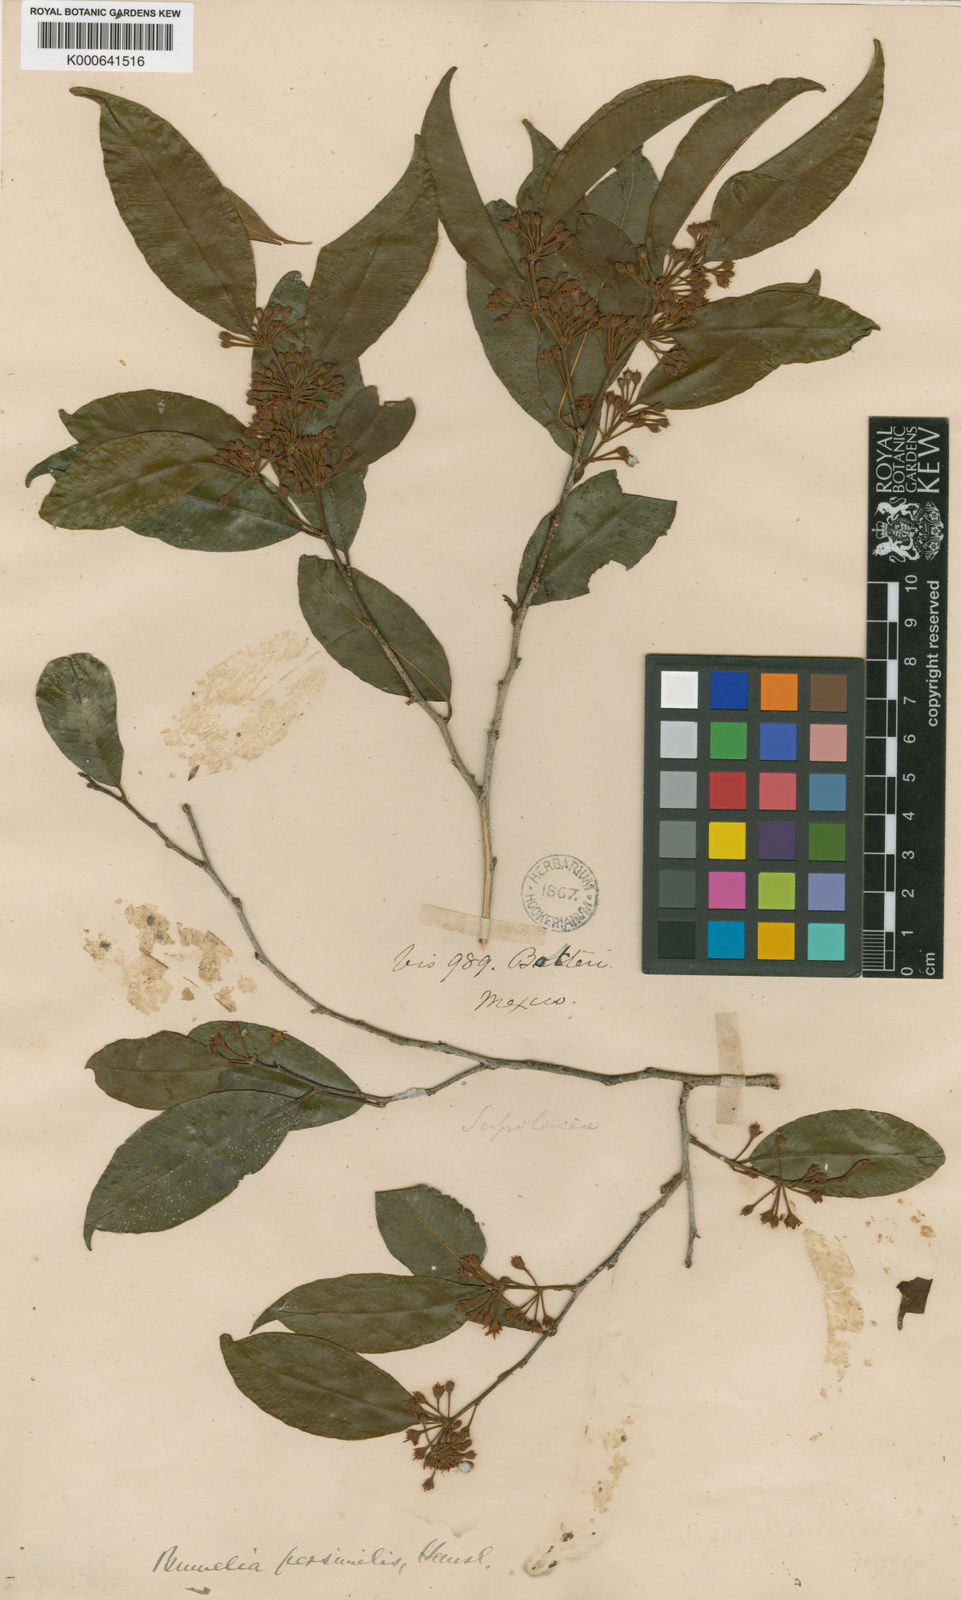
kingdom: Plantae
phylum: Tracheophyta
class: Magnoliopsida
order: Ericales
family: Sapotaceae
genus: Sideroxylon
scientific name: Sideroxylon persimile
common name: Bumelia
